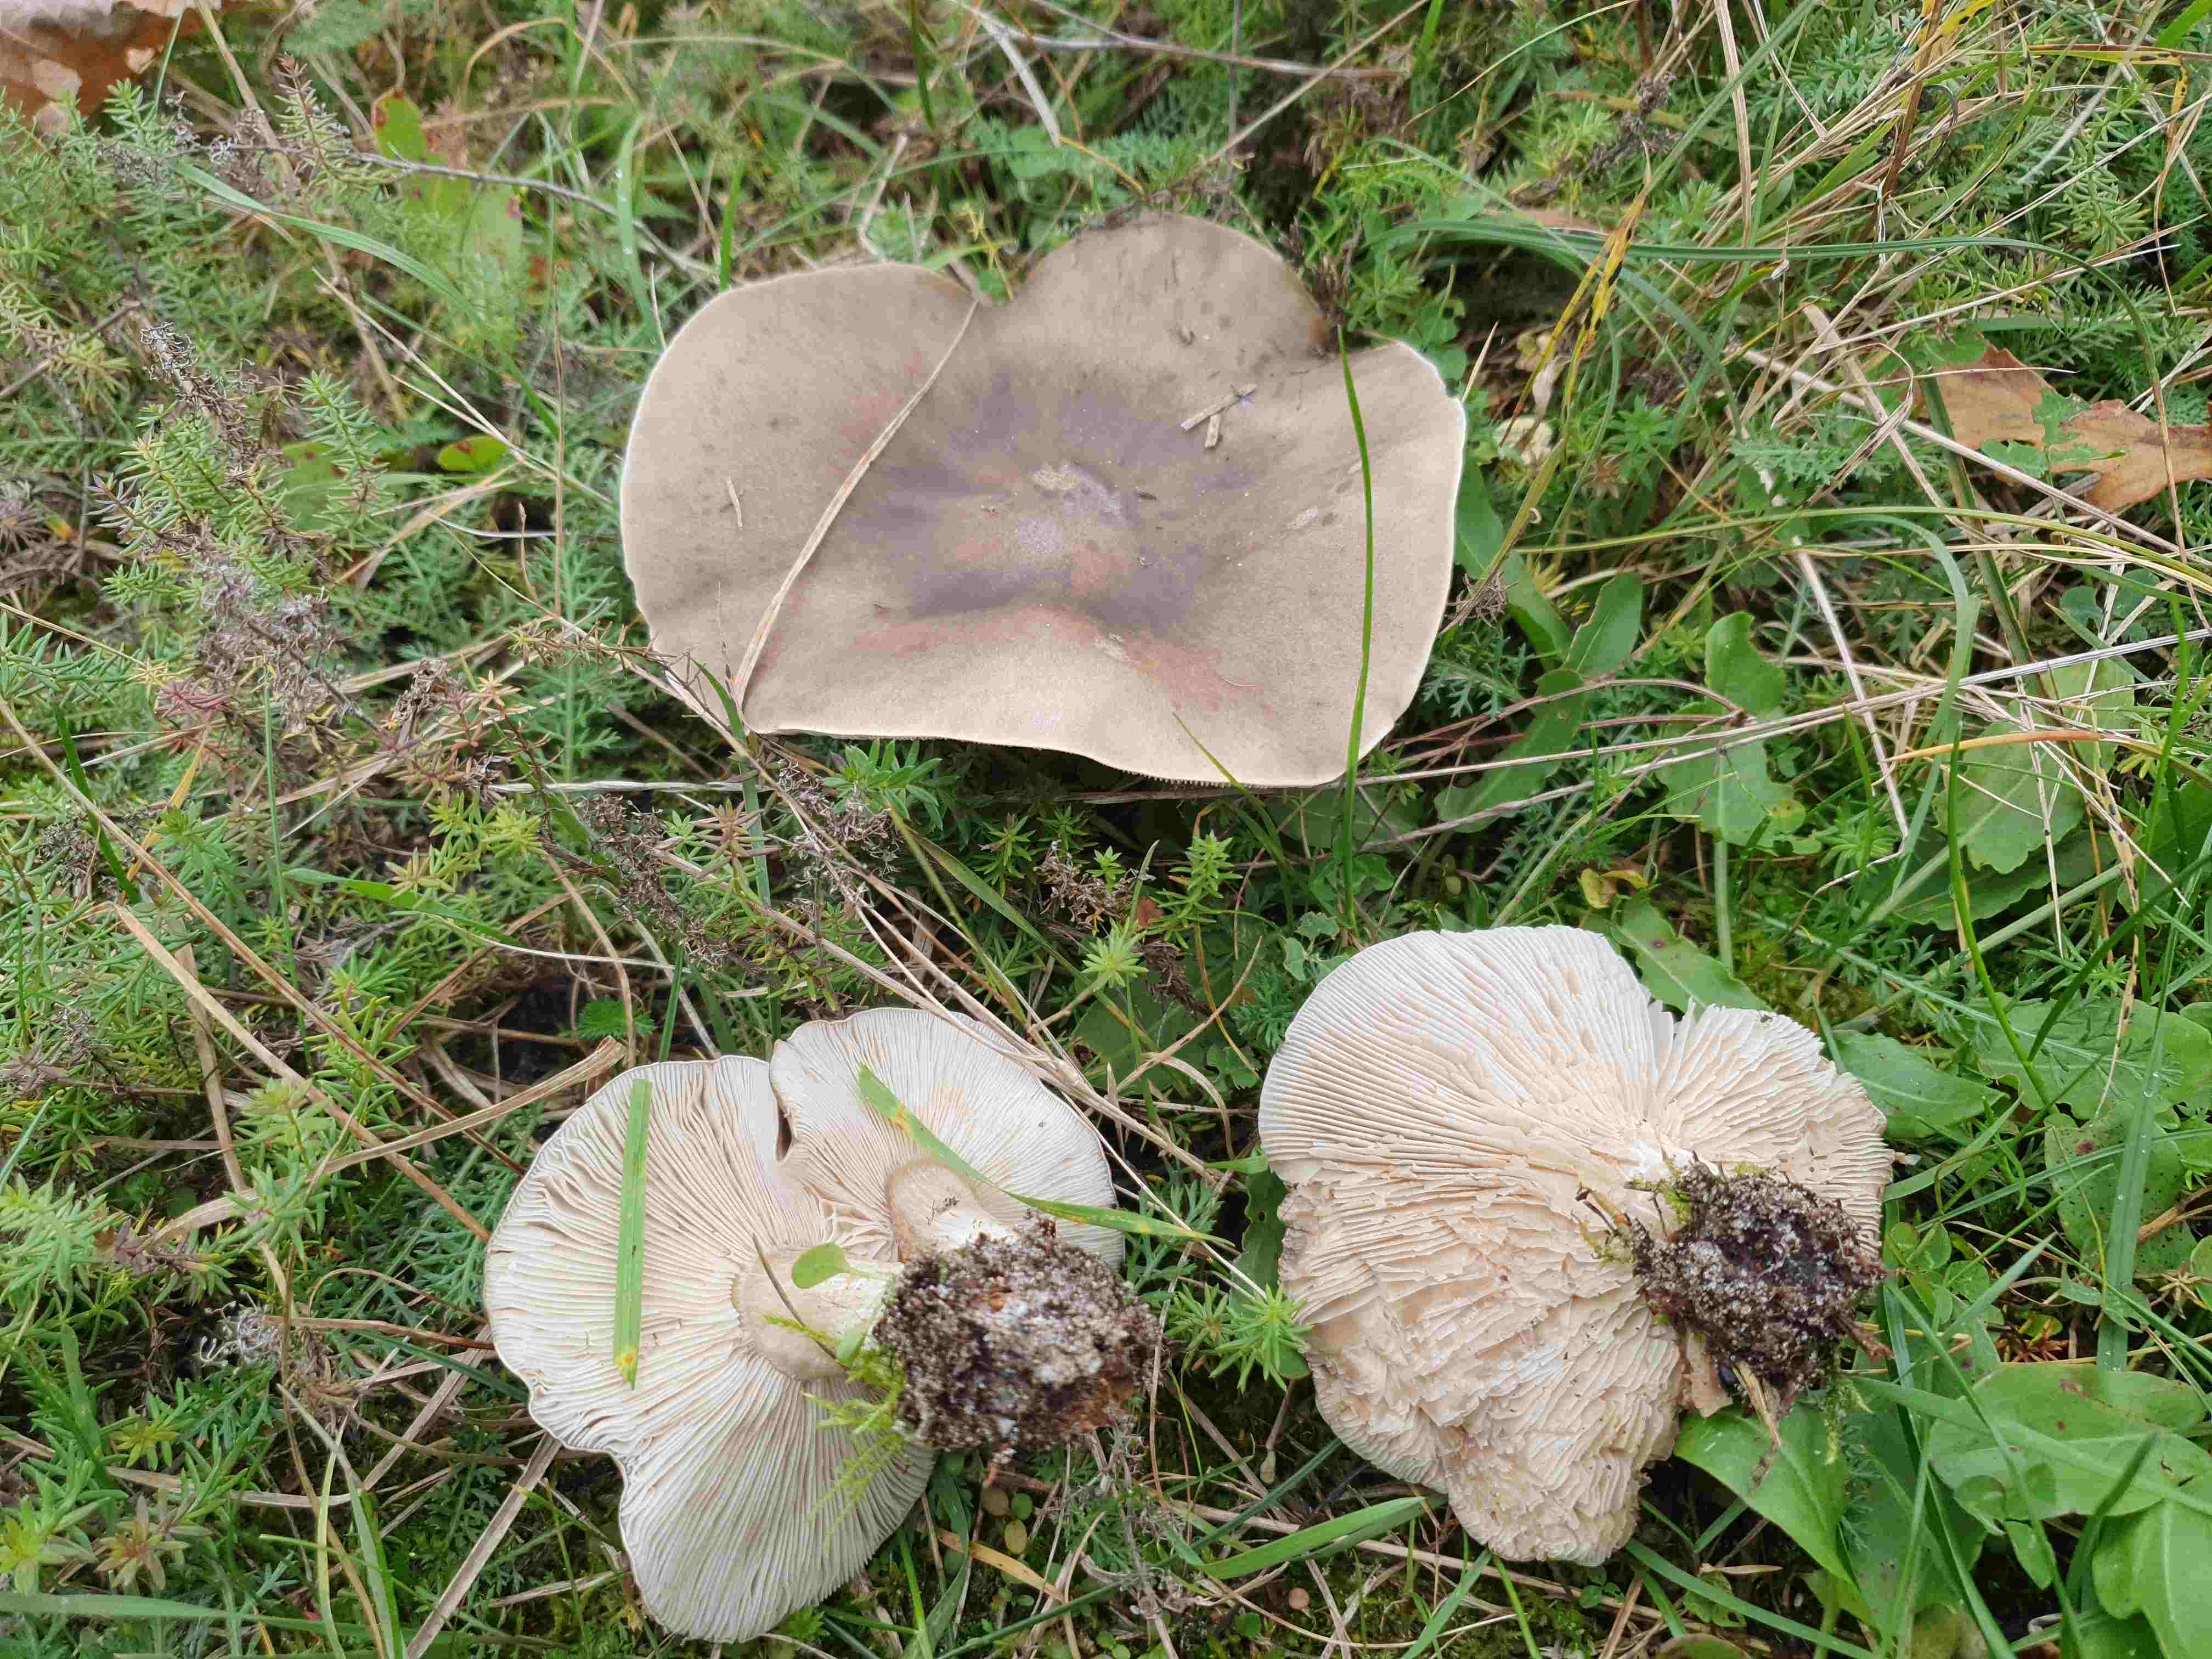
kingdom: Fungi
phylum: Basidiomycota
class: Agaricomycetes
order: Agaricales
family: Tricholomataceae
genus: Melanoleuca
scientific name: Melanoleuca
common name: munkehat
